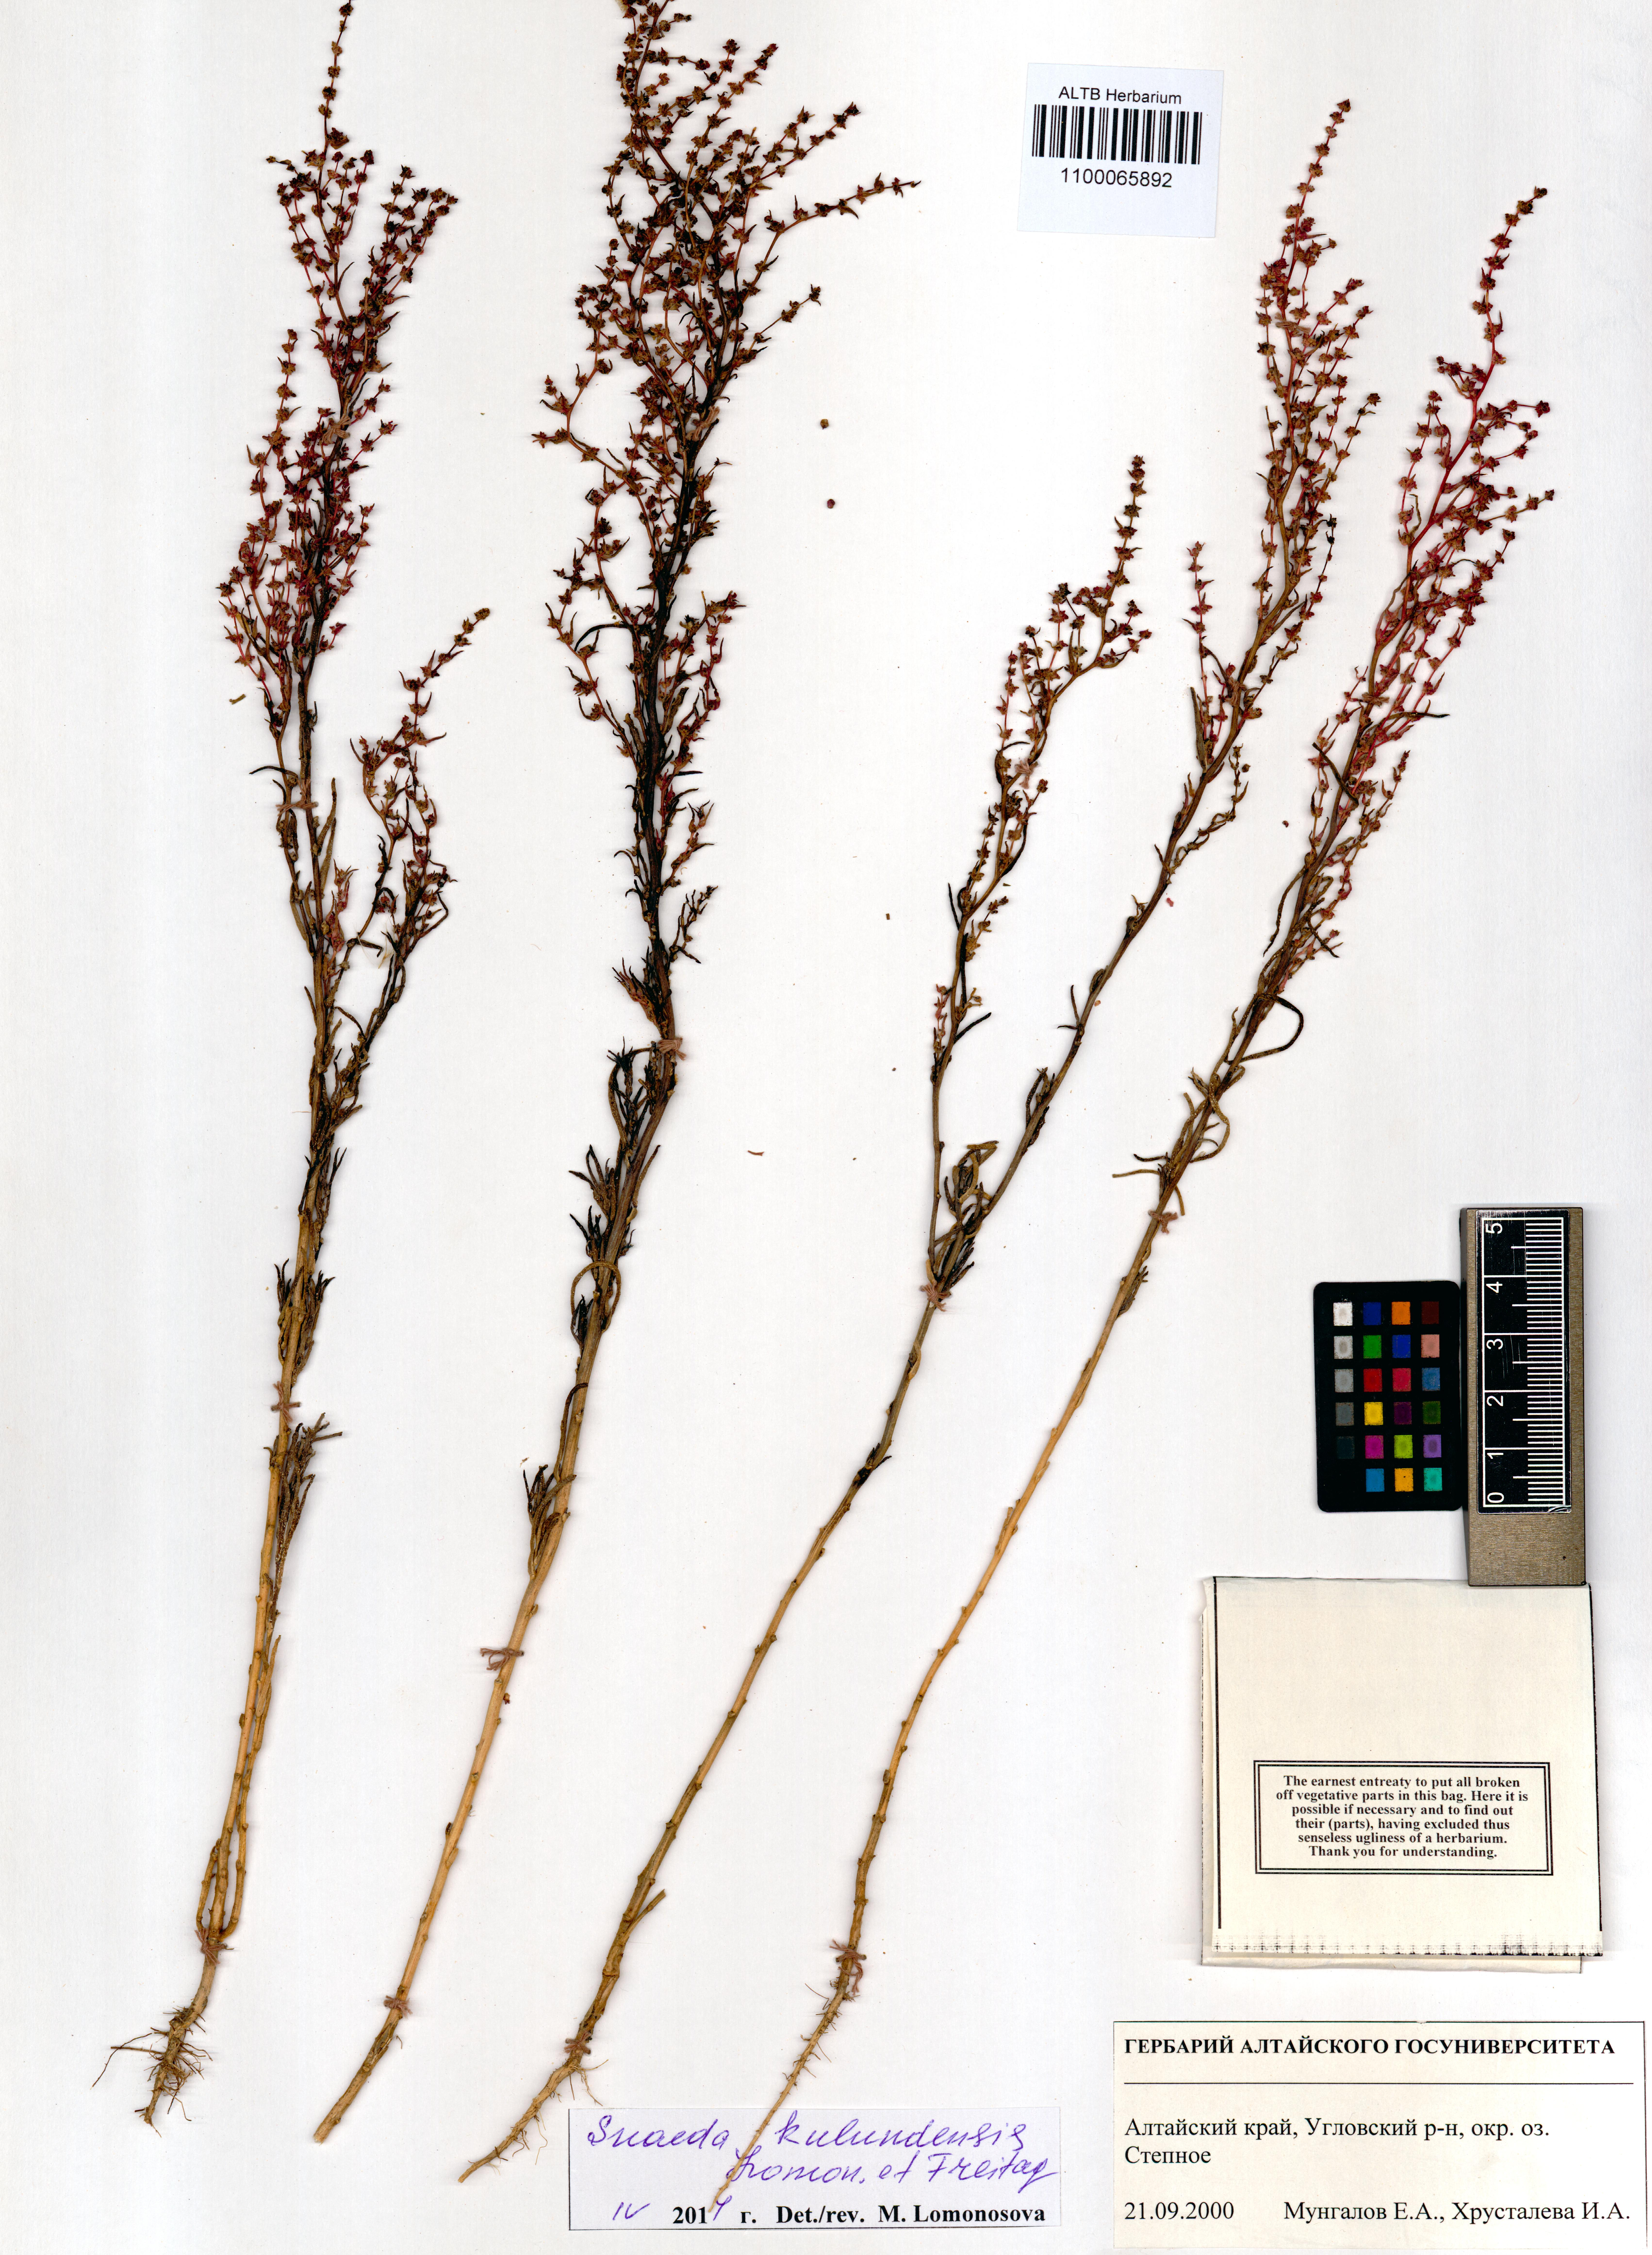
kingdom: Plantae
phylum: Tracheophyta
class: Magnoliopsida
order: Caryophyllales
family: Amaranthaceae
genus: Suaeda
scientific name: Suaeda kulundensis
